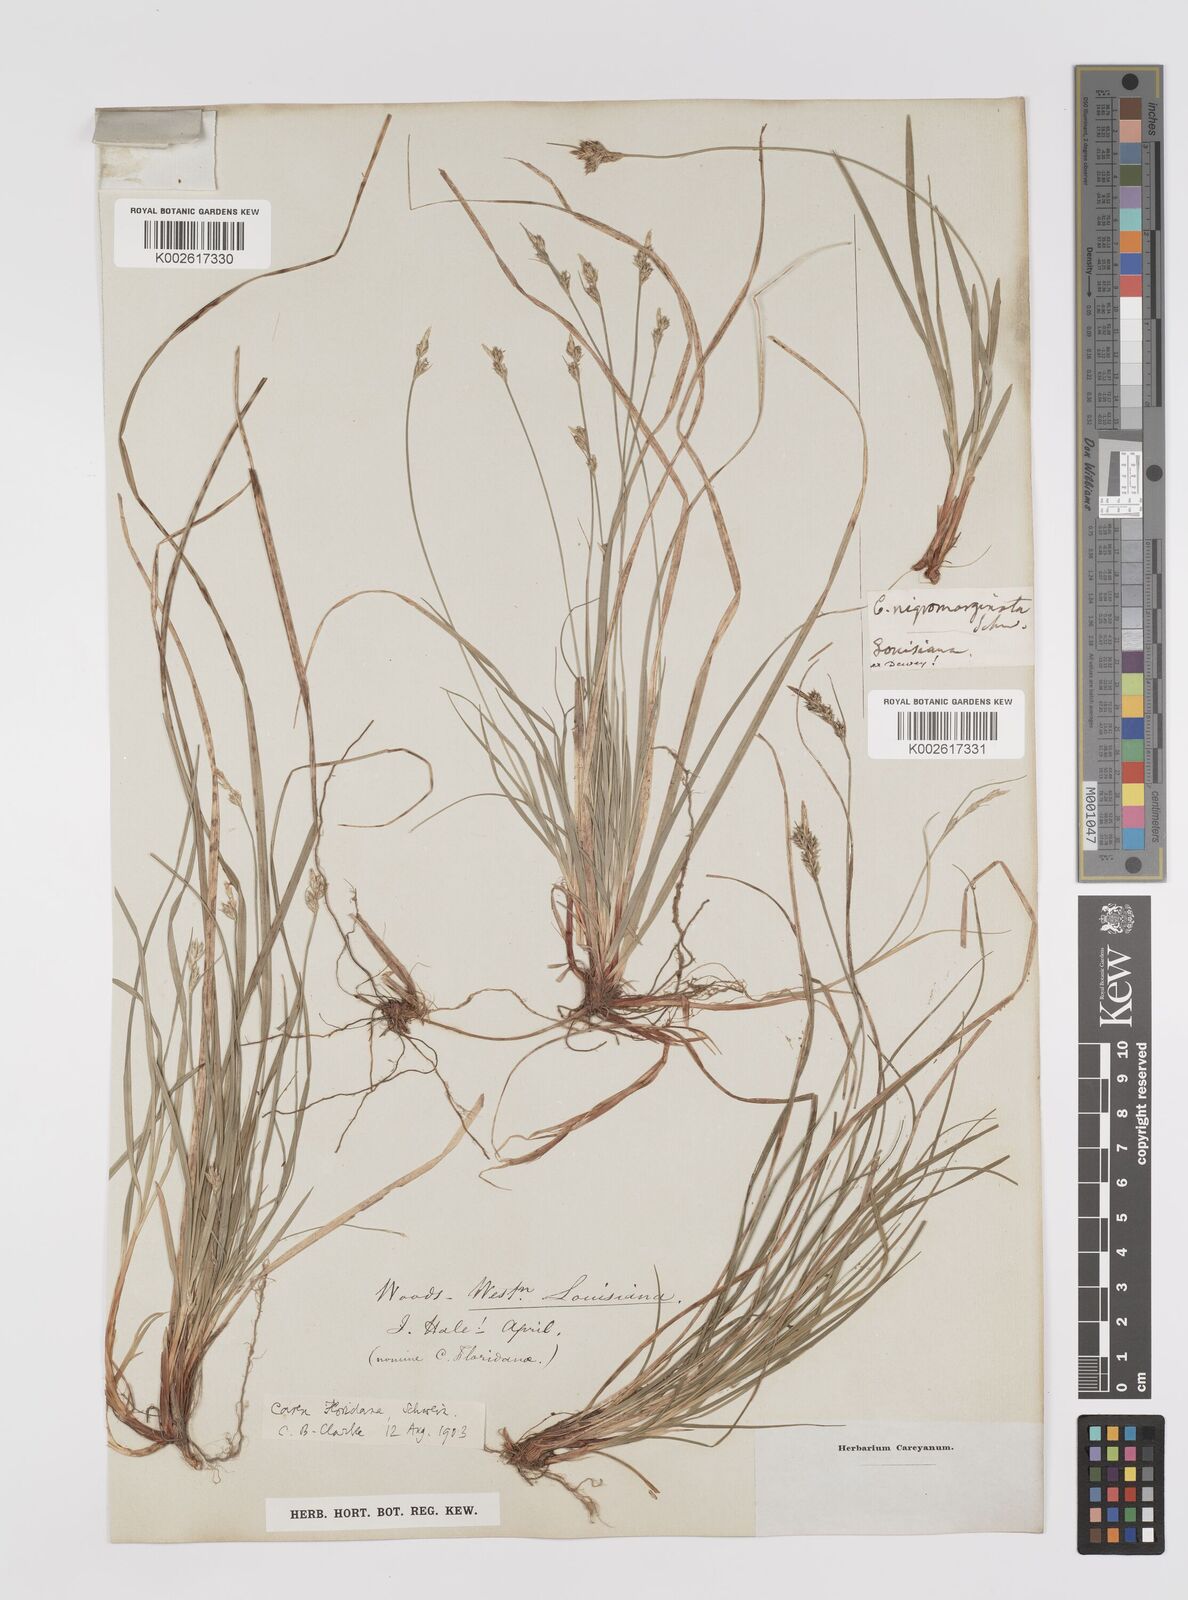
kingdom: Plantae
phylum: Tracheophyta
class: Liliopsida
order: Poales
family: Cyperaceae
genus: Carex
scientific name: Carex floridana
